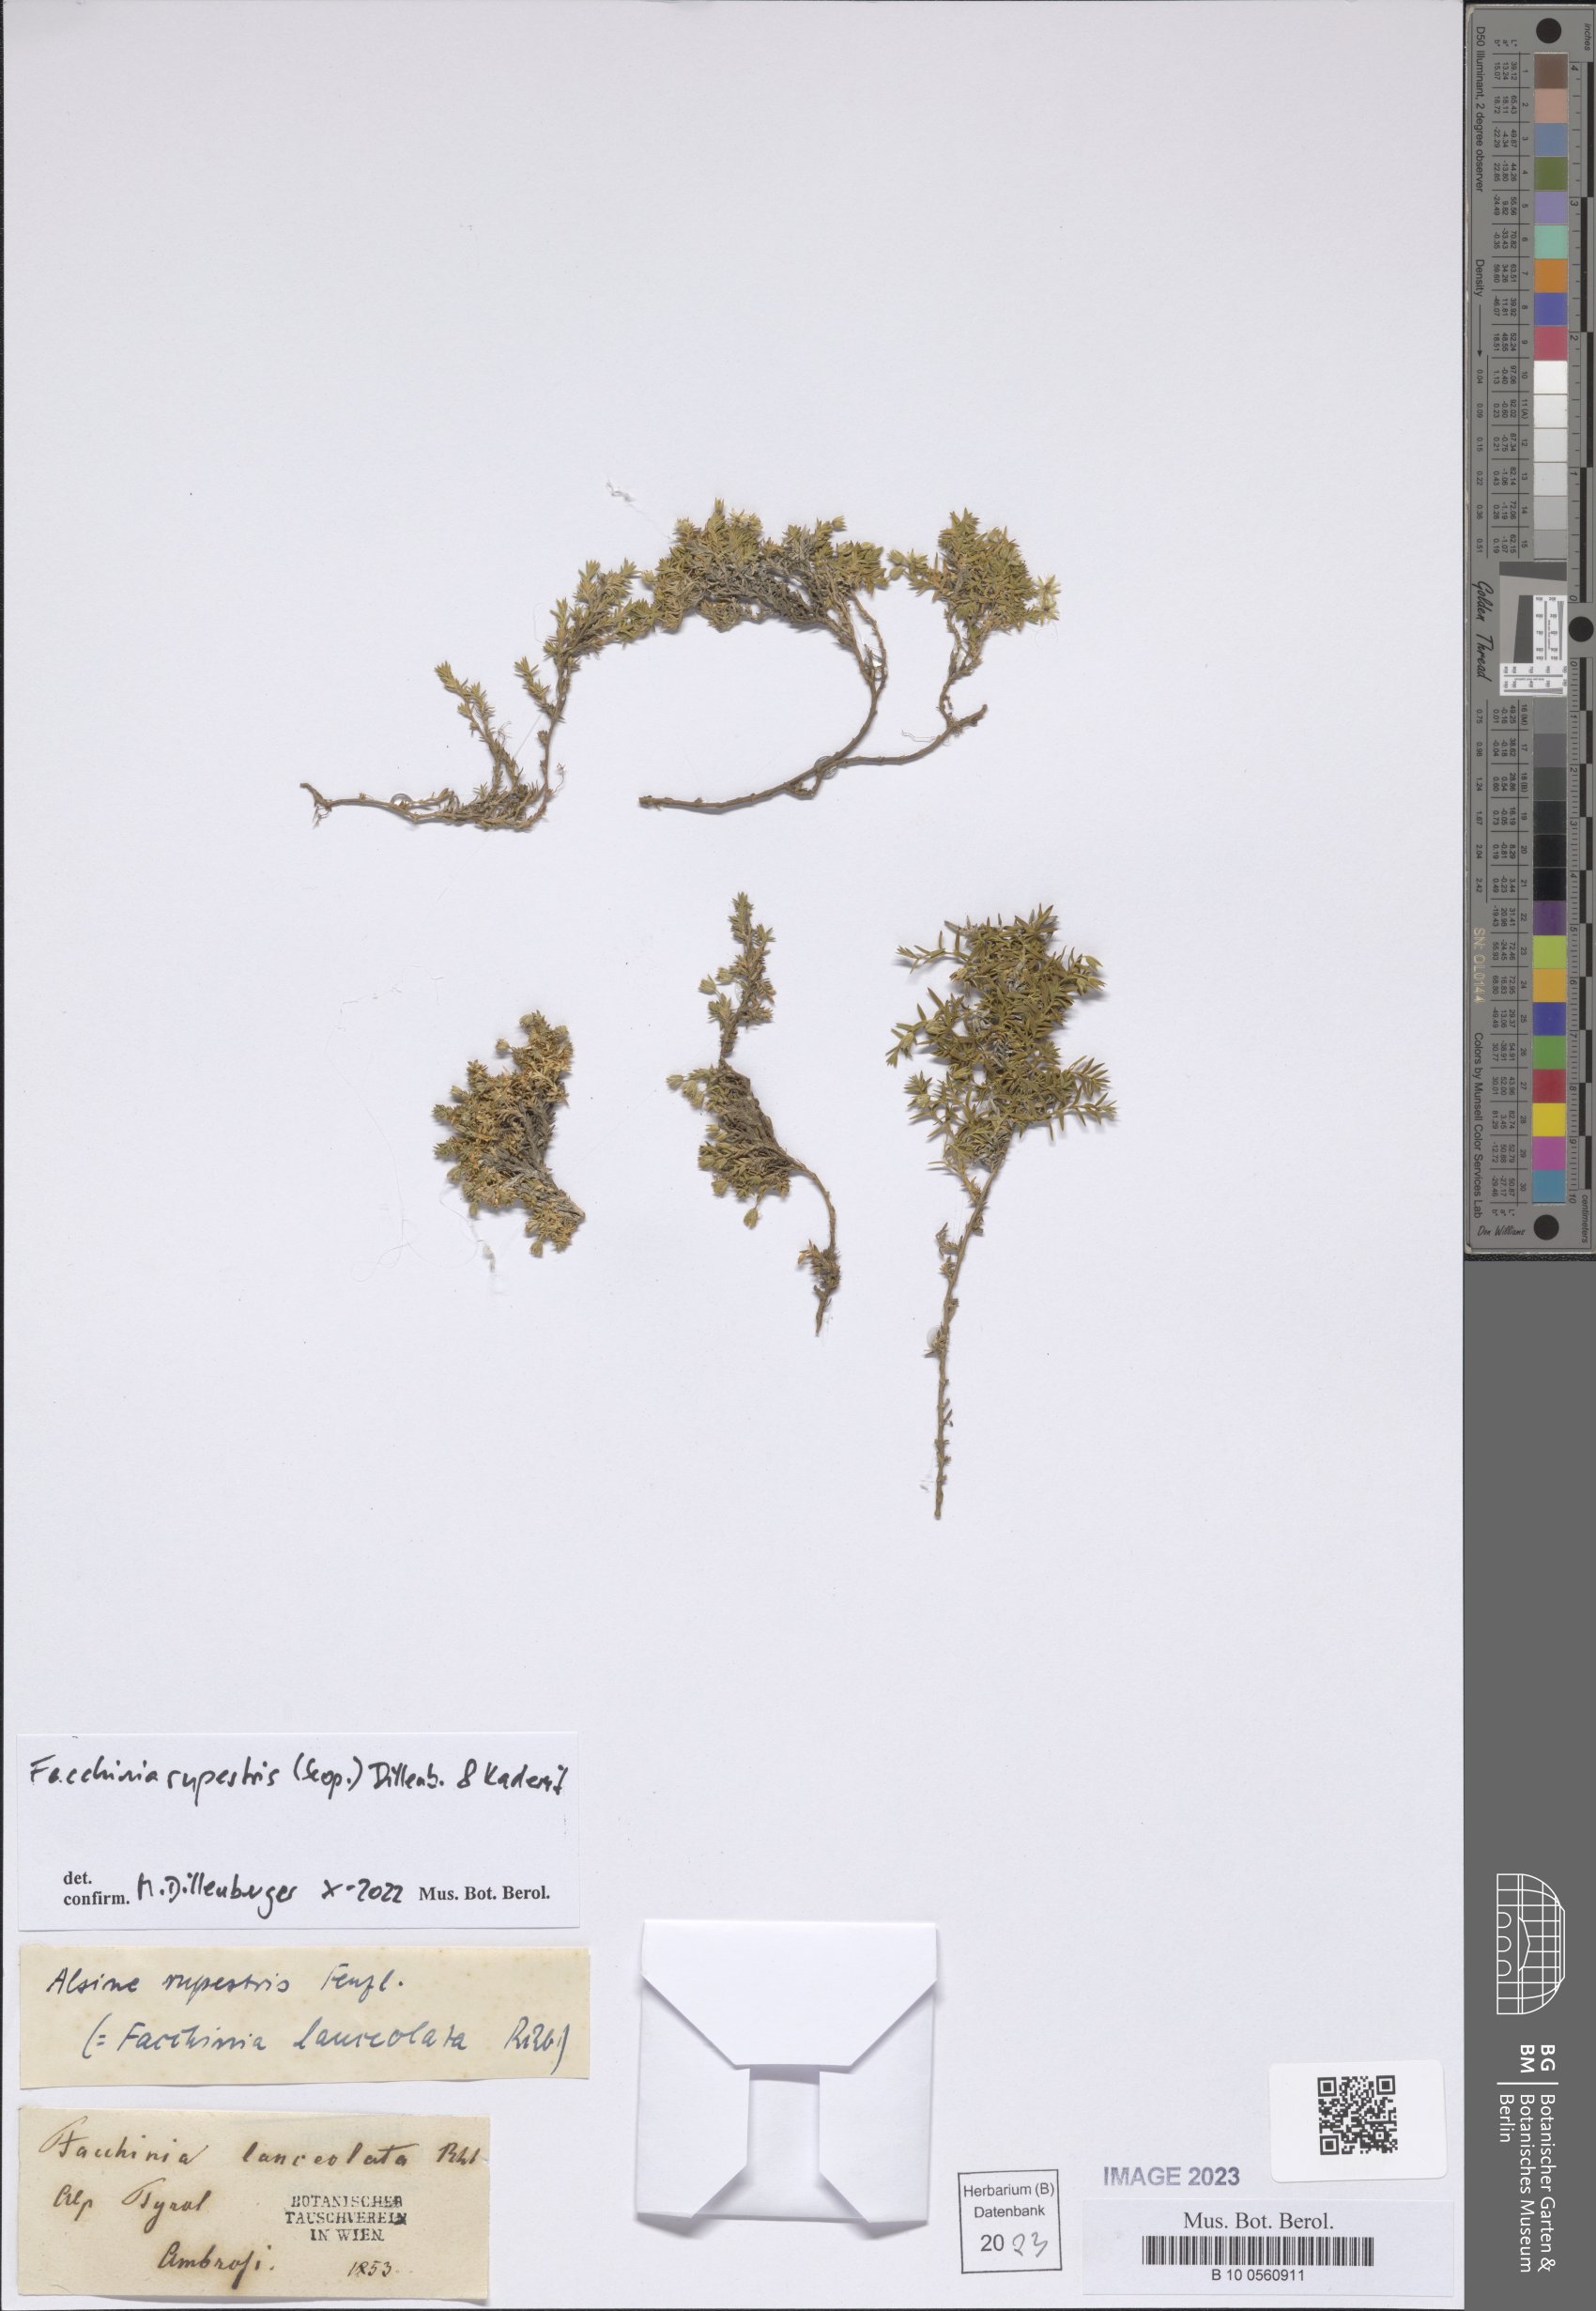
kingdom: Plantae
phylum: Tracheophyta
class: Magnoliopsida
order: Caryophyllales
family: Caryophyllaceae
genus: Facchinia
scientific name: Facchinia rupestris
